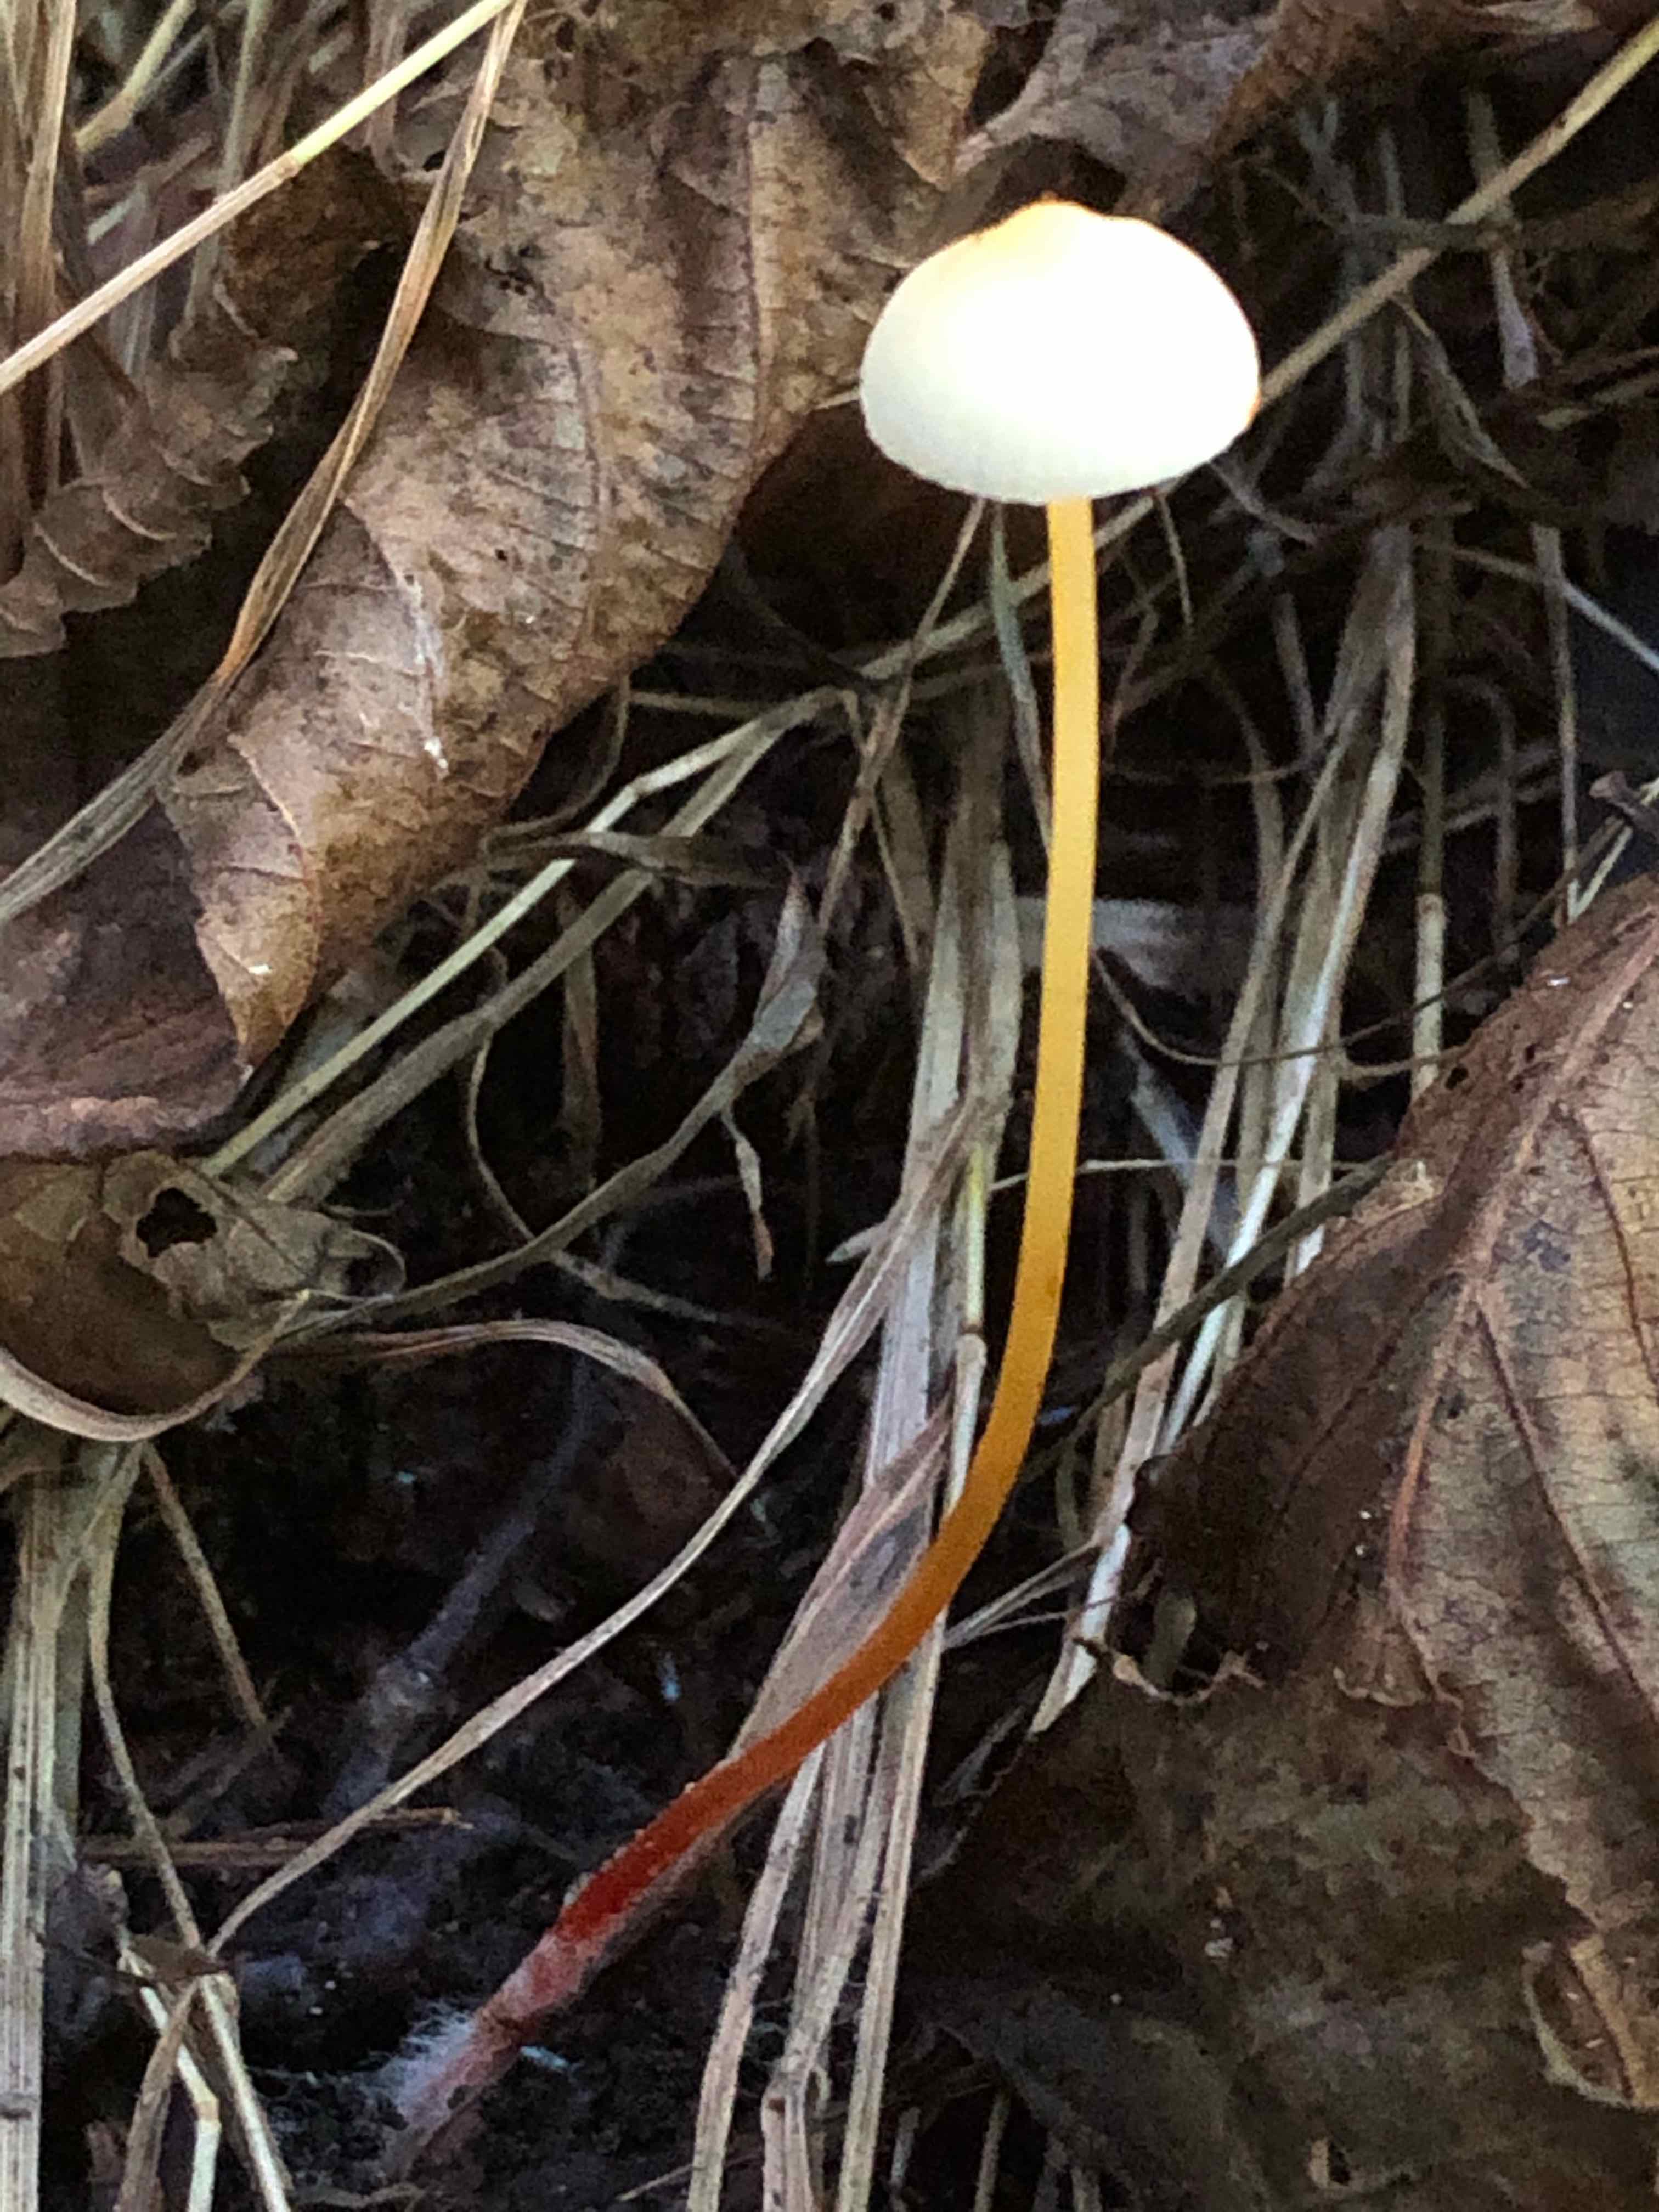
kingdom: Fungi
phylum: Basidiomycota
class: Agaricomycetes
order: Agaricales
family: Mycenaceae
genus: Mycena
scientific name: Mycena crocata
